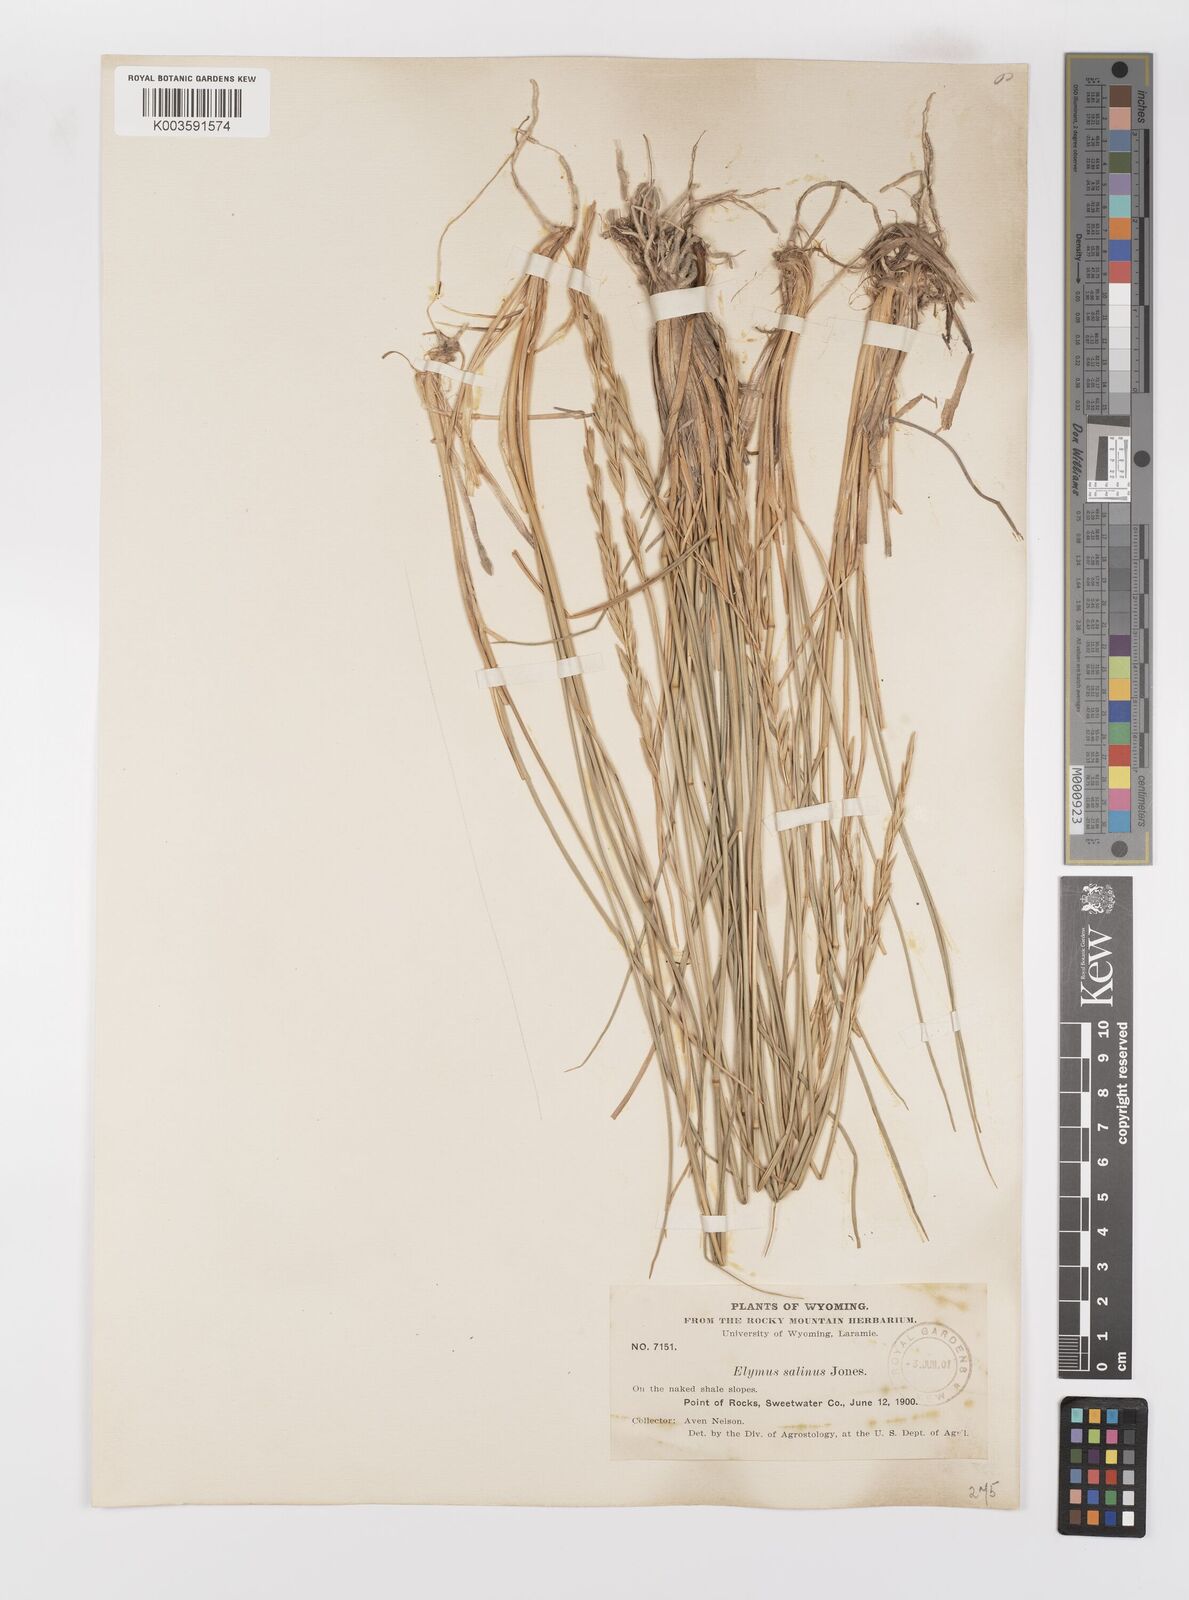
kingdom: Plantae
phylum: Tracheophyta
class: Liliopsida
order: Poales
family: Poaceae
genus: Leymus
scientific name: Leymus salina
